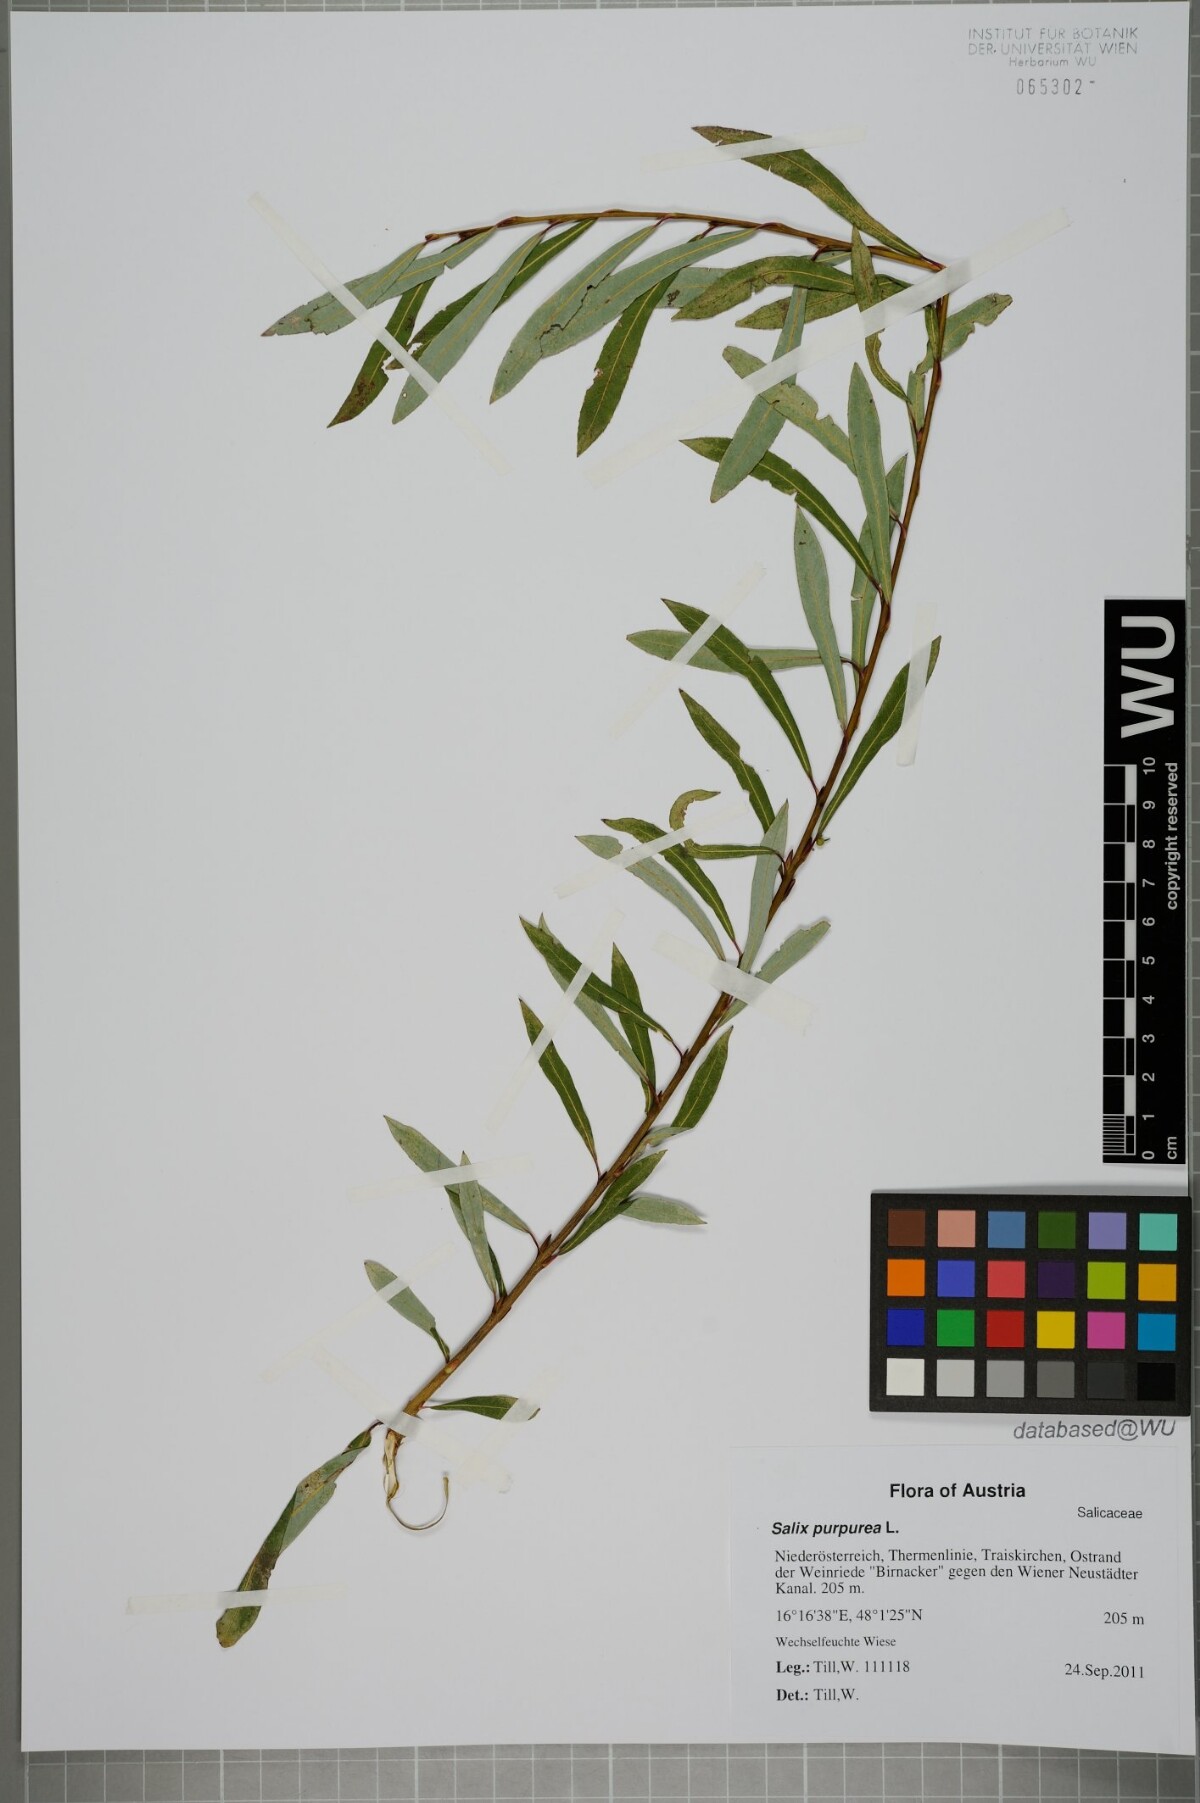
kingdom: Plantae
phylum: Tracheophyta
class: Magnoliopsida
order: Malpighiales
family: Salicaceae
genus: Salix
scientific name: Salix purpurea
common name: Purple willow
